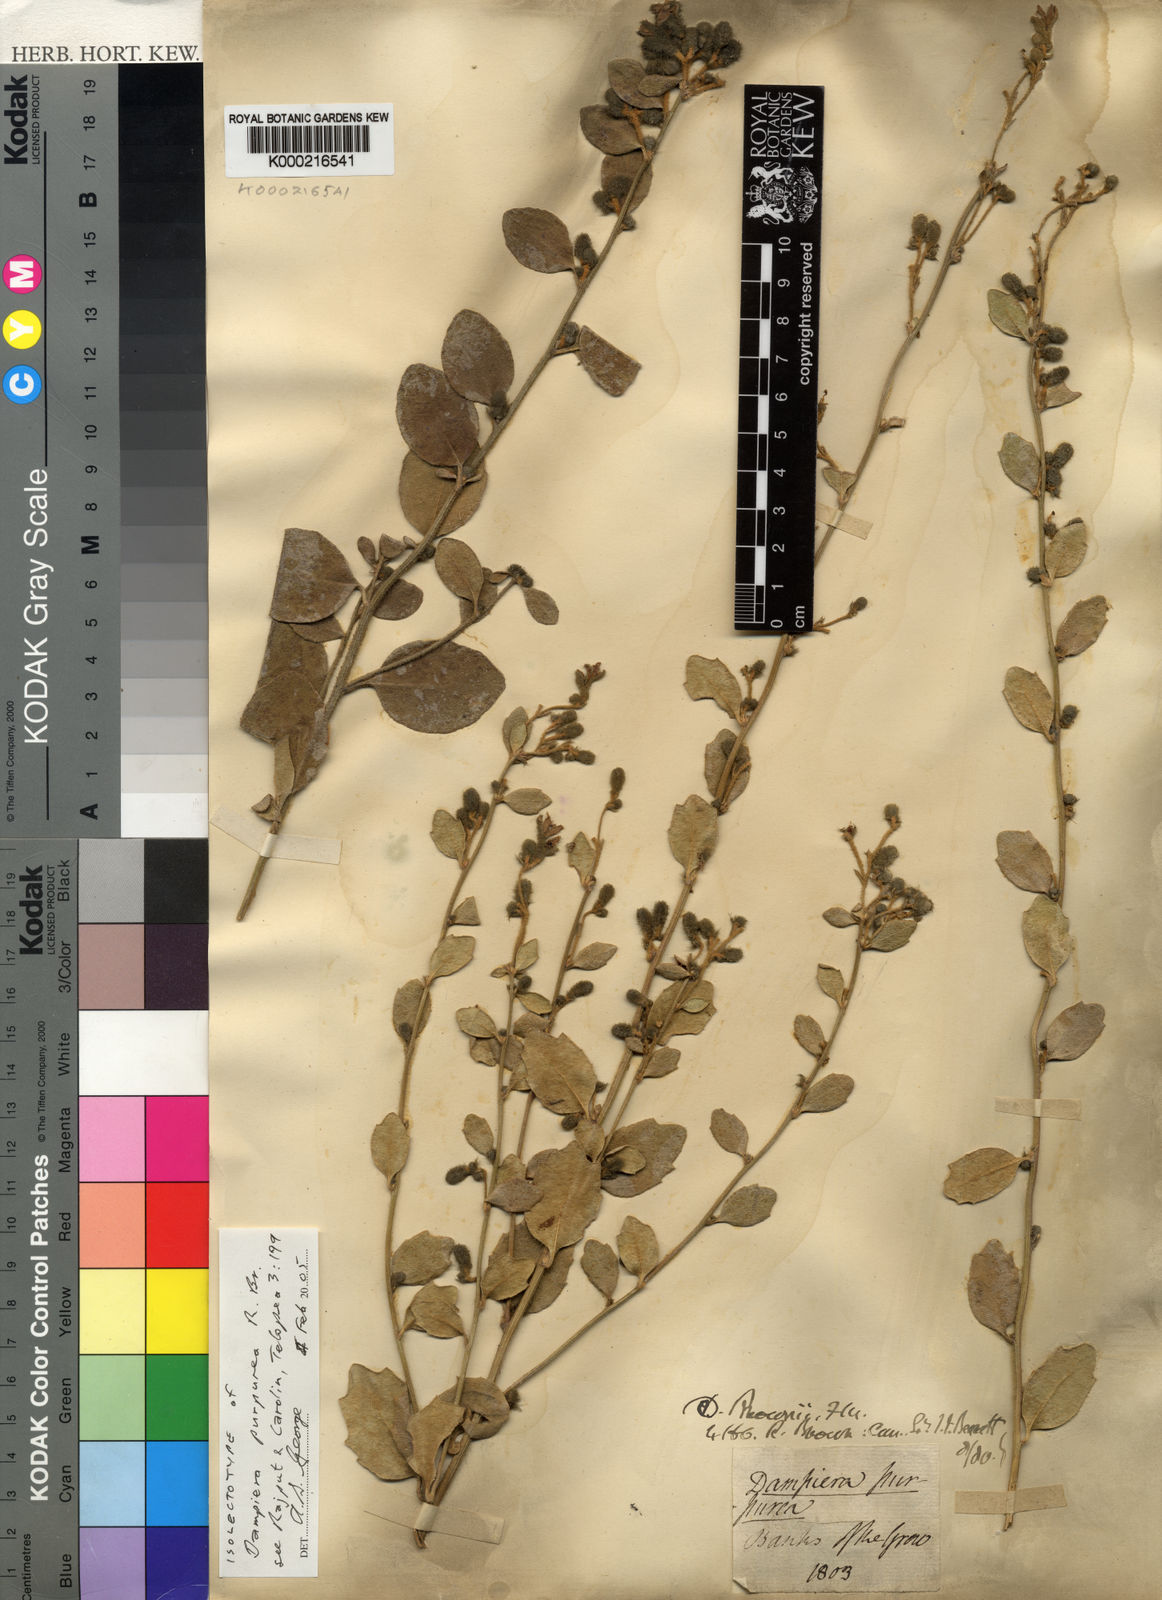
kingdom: Plantae
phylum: Tracheophyta
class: Magnoliopsida
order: Asterales
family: Goodeniaceae
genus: Dampiera
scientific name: Dampiera purpurea
